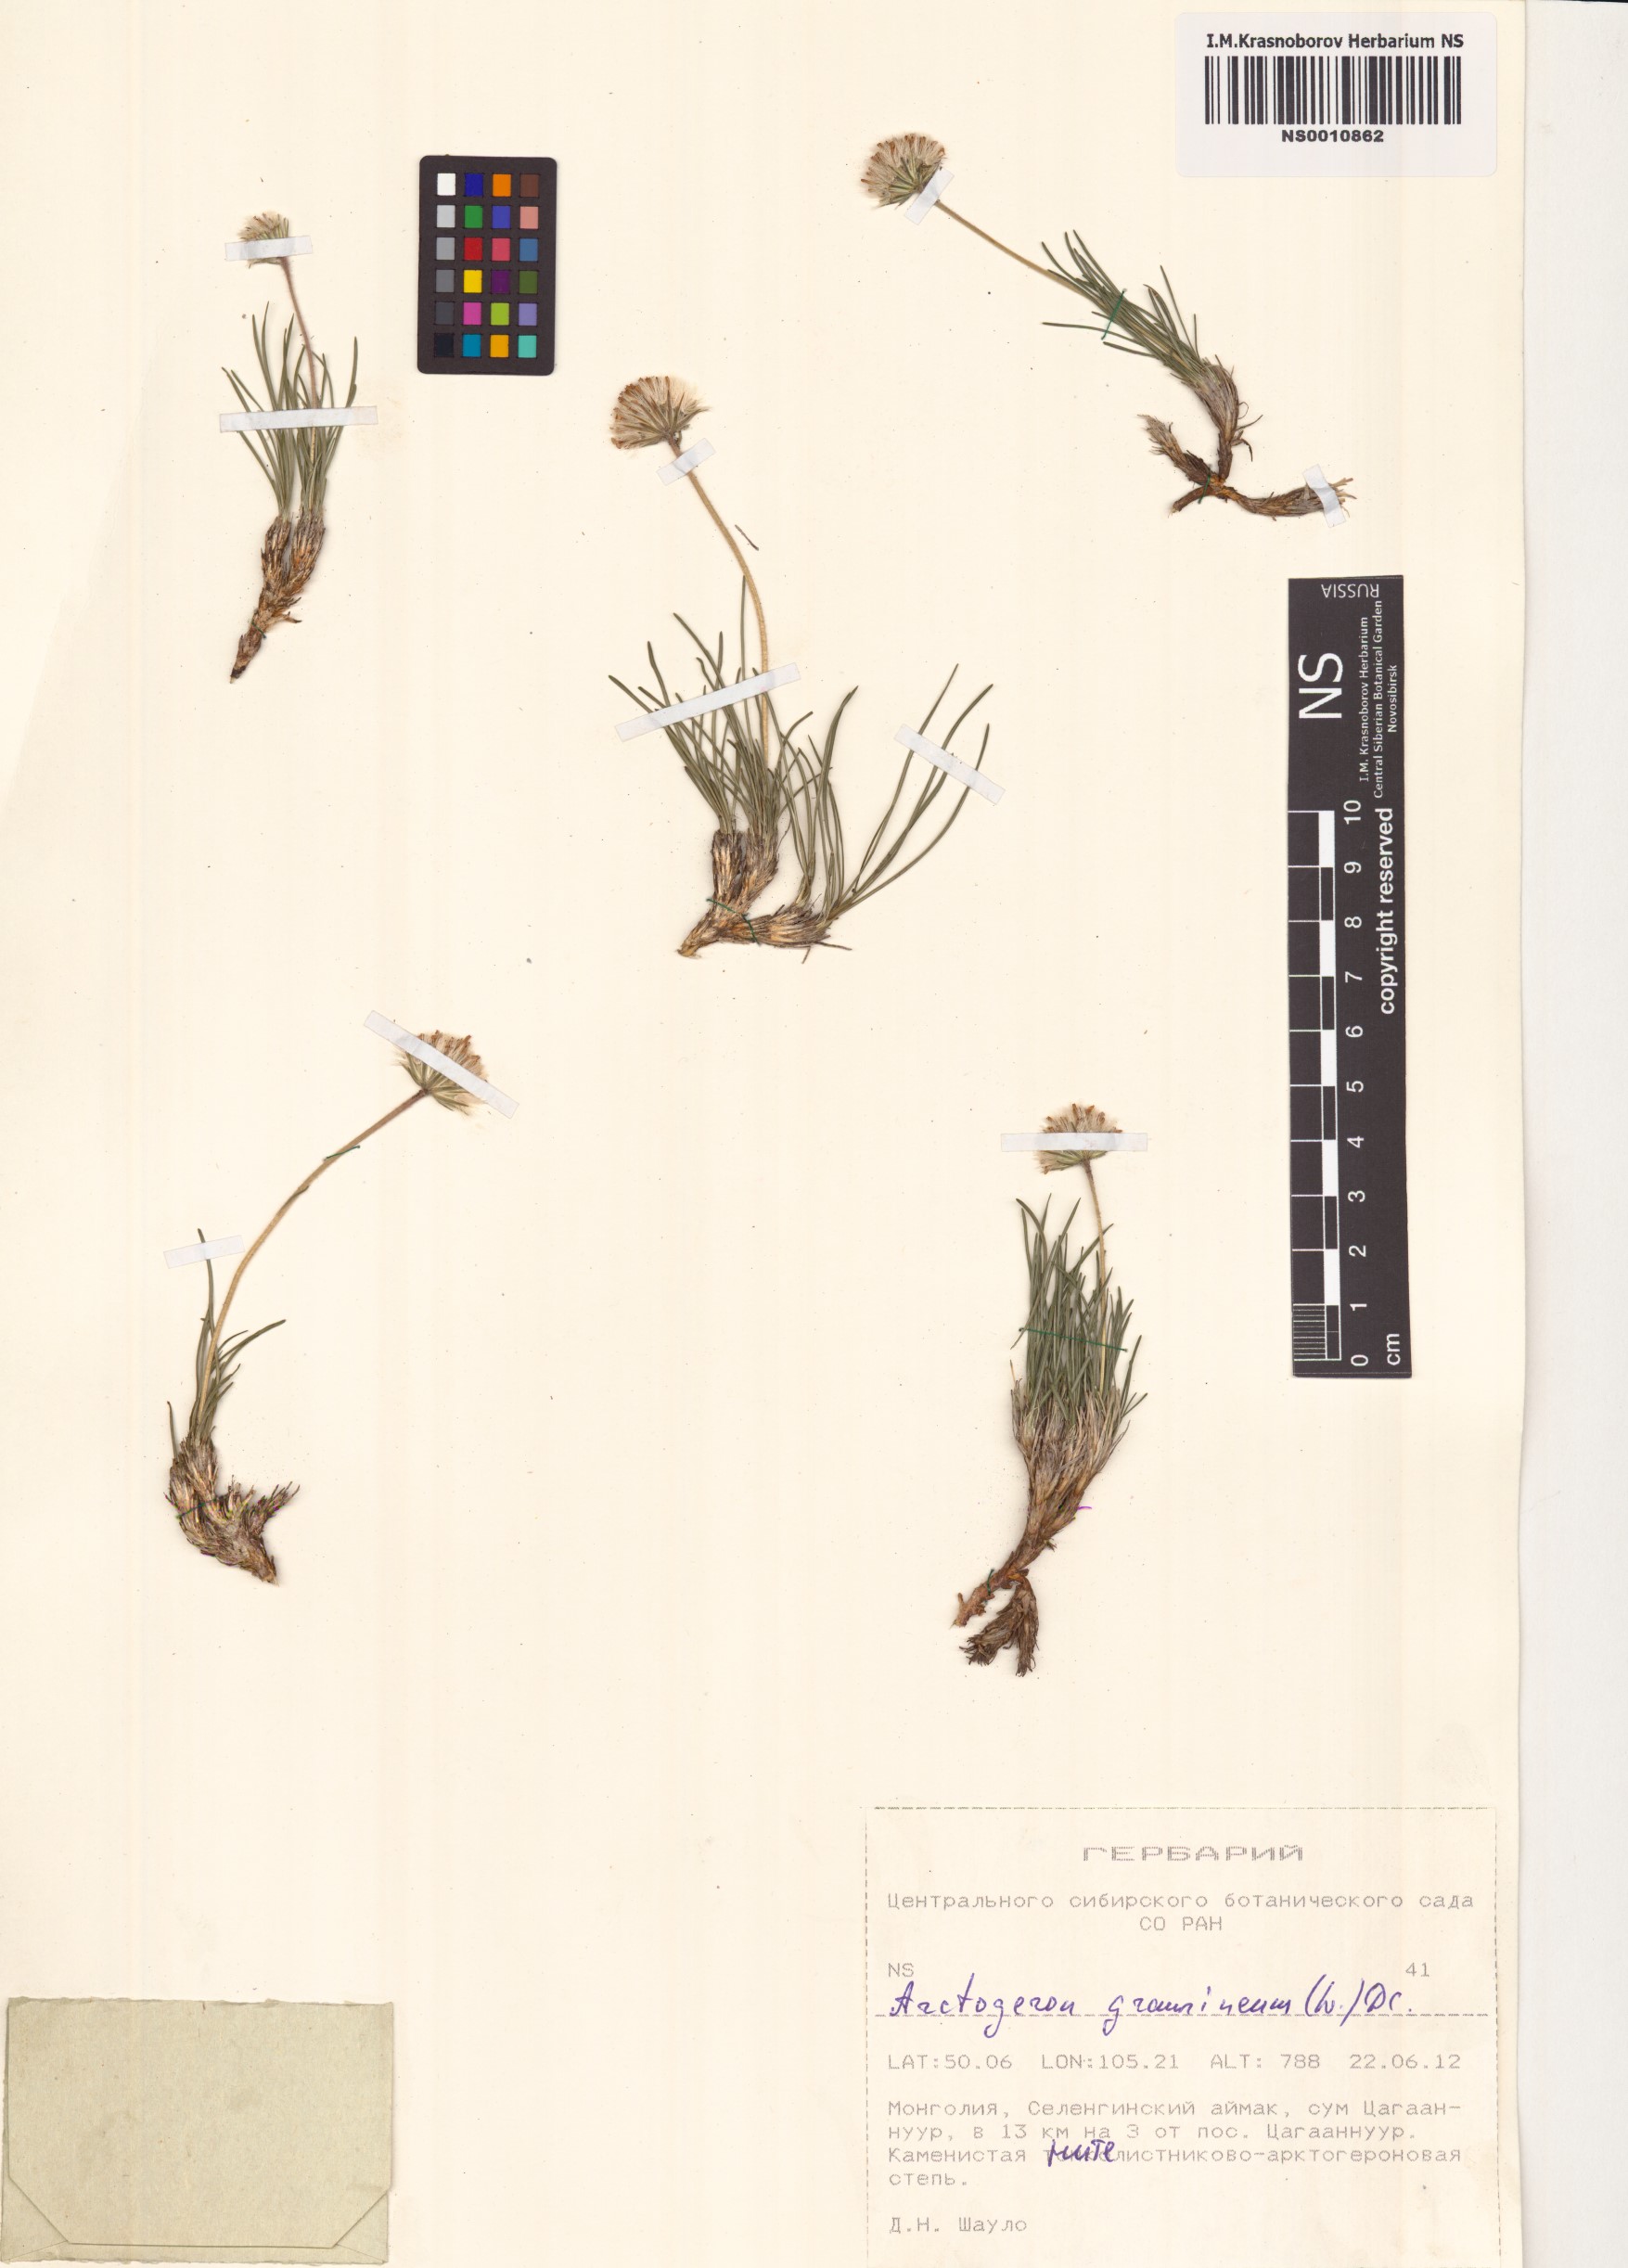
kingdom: Plantae
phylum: Tracheophyta
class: Magnoliopsida
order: Asterales
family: Asteraceae
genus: Arctogeron
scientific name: Arctogeron gramineum
